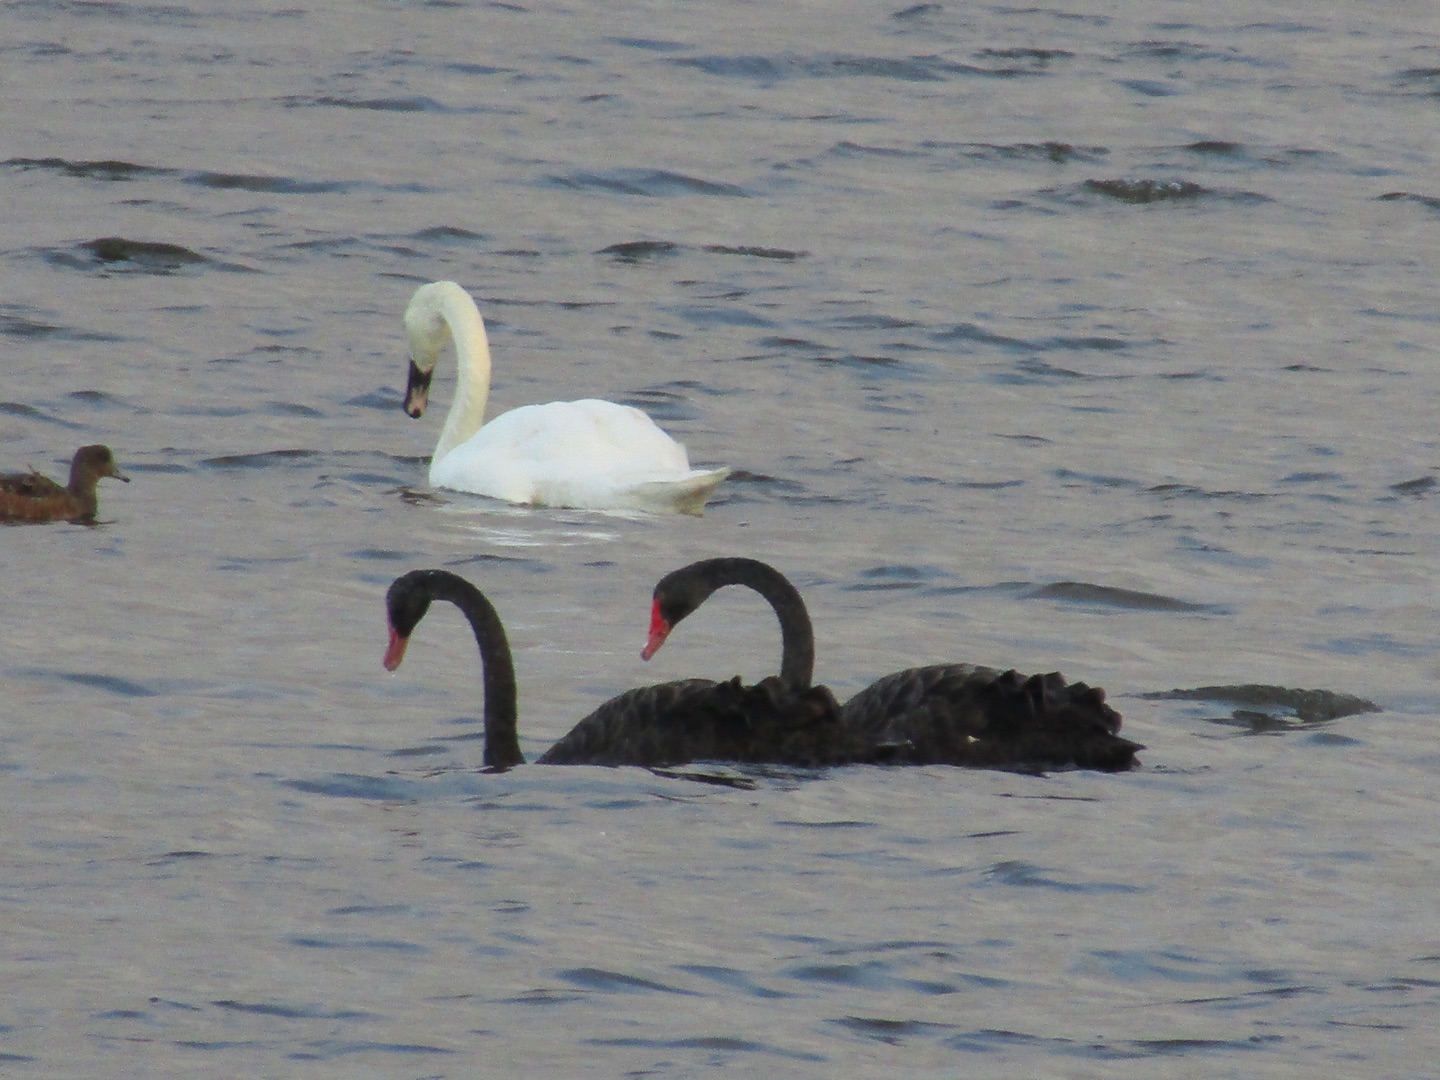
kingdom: Animalia
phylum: Chordata
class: Aves
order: Anseriformes
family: Anatidae
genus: Cygnus
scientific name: Cygnus atratus
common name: Sortsvane
